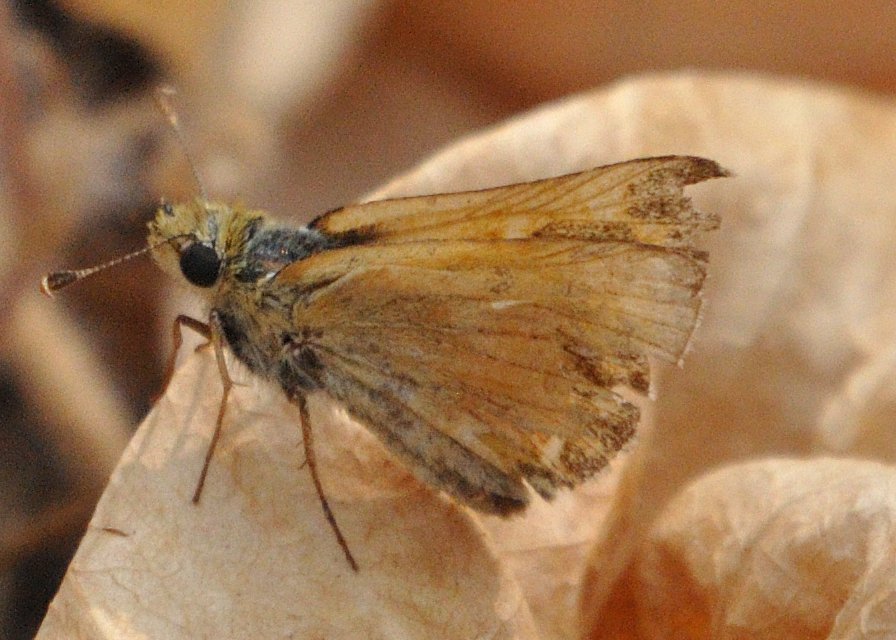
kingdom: Animalia
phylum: Arthropoda
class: Insecta
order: Lepidoptera
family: Hesperiidae
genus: Ochlodes
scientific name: Ochlodes sylvanoides
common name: Woodland Skipper
